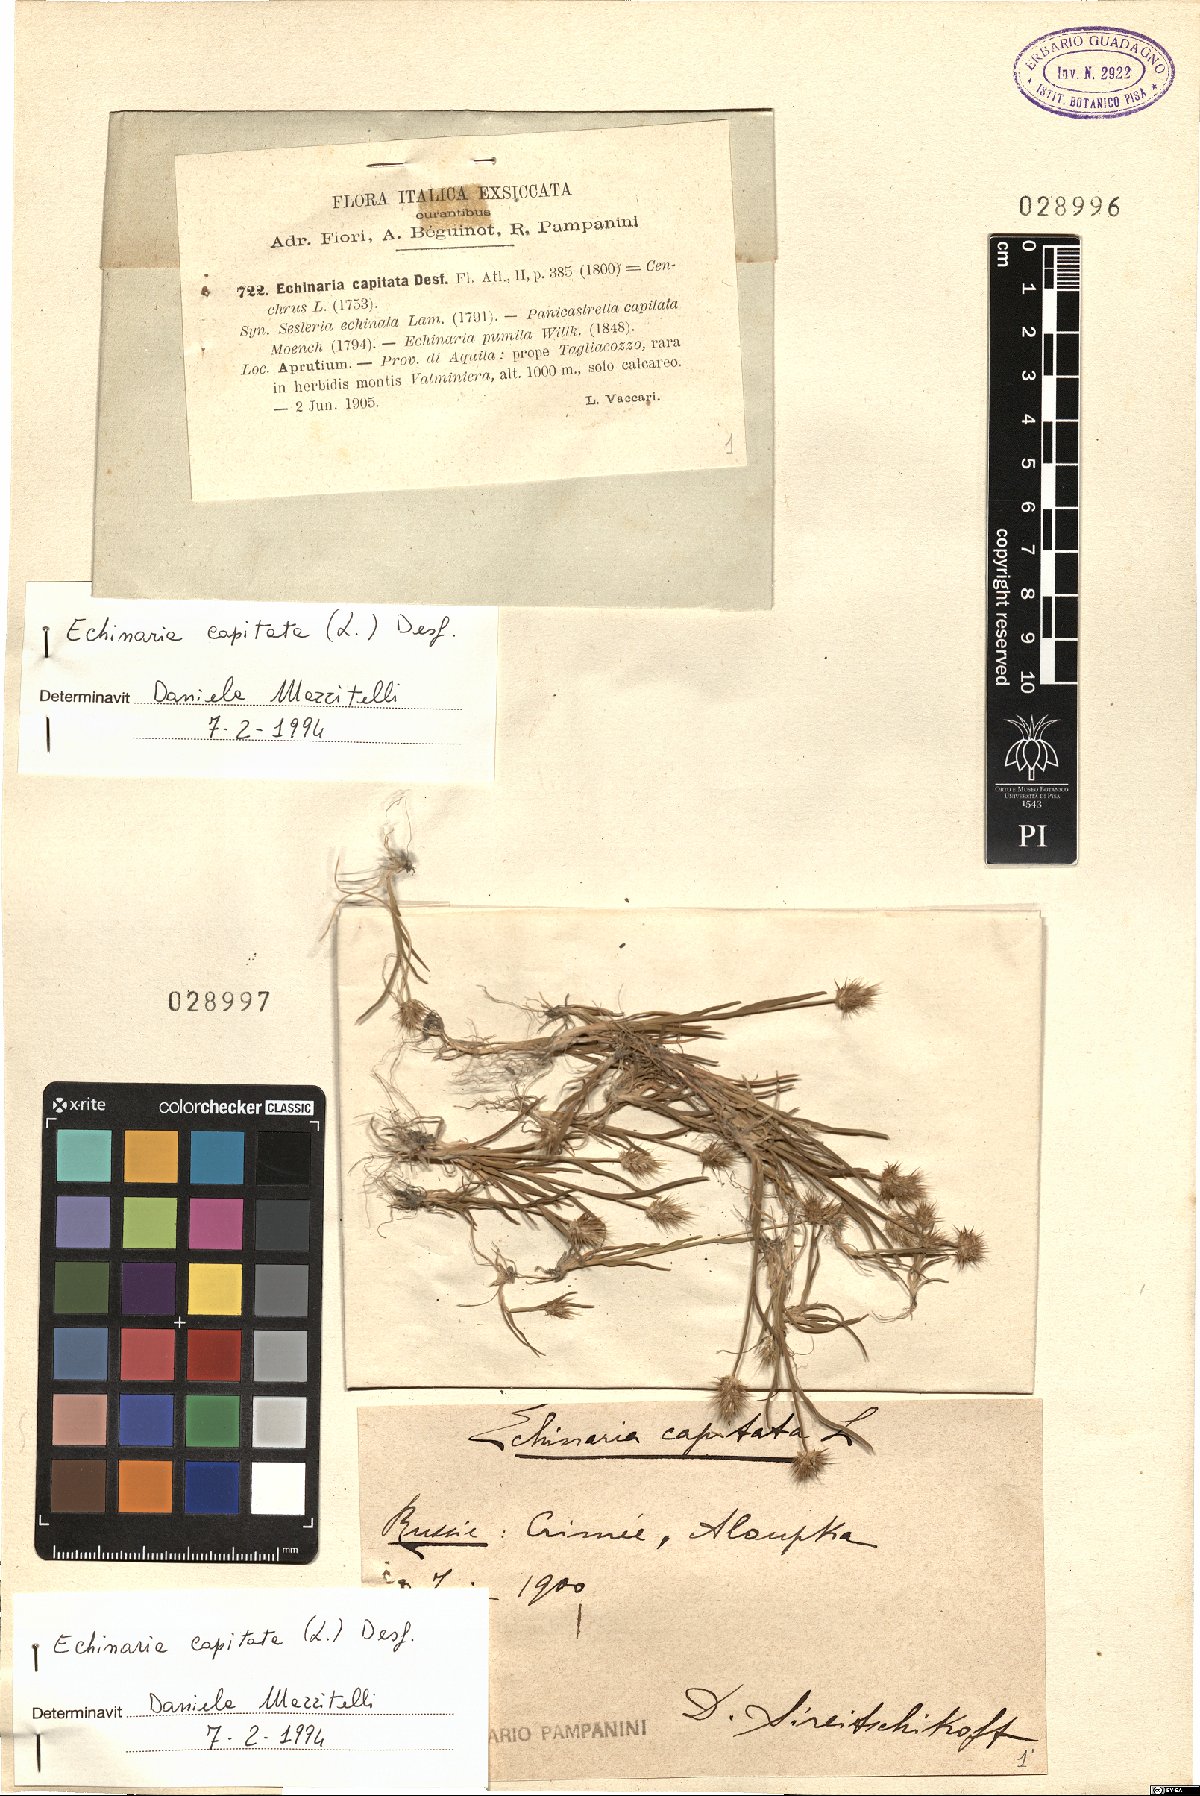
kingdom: Plantae
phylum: Tracheophyta
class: Liliopsida
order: Poales
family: Poaceae
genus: Echinaria
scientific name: Echinaria capitata
